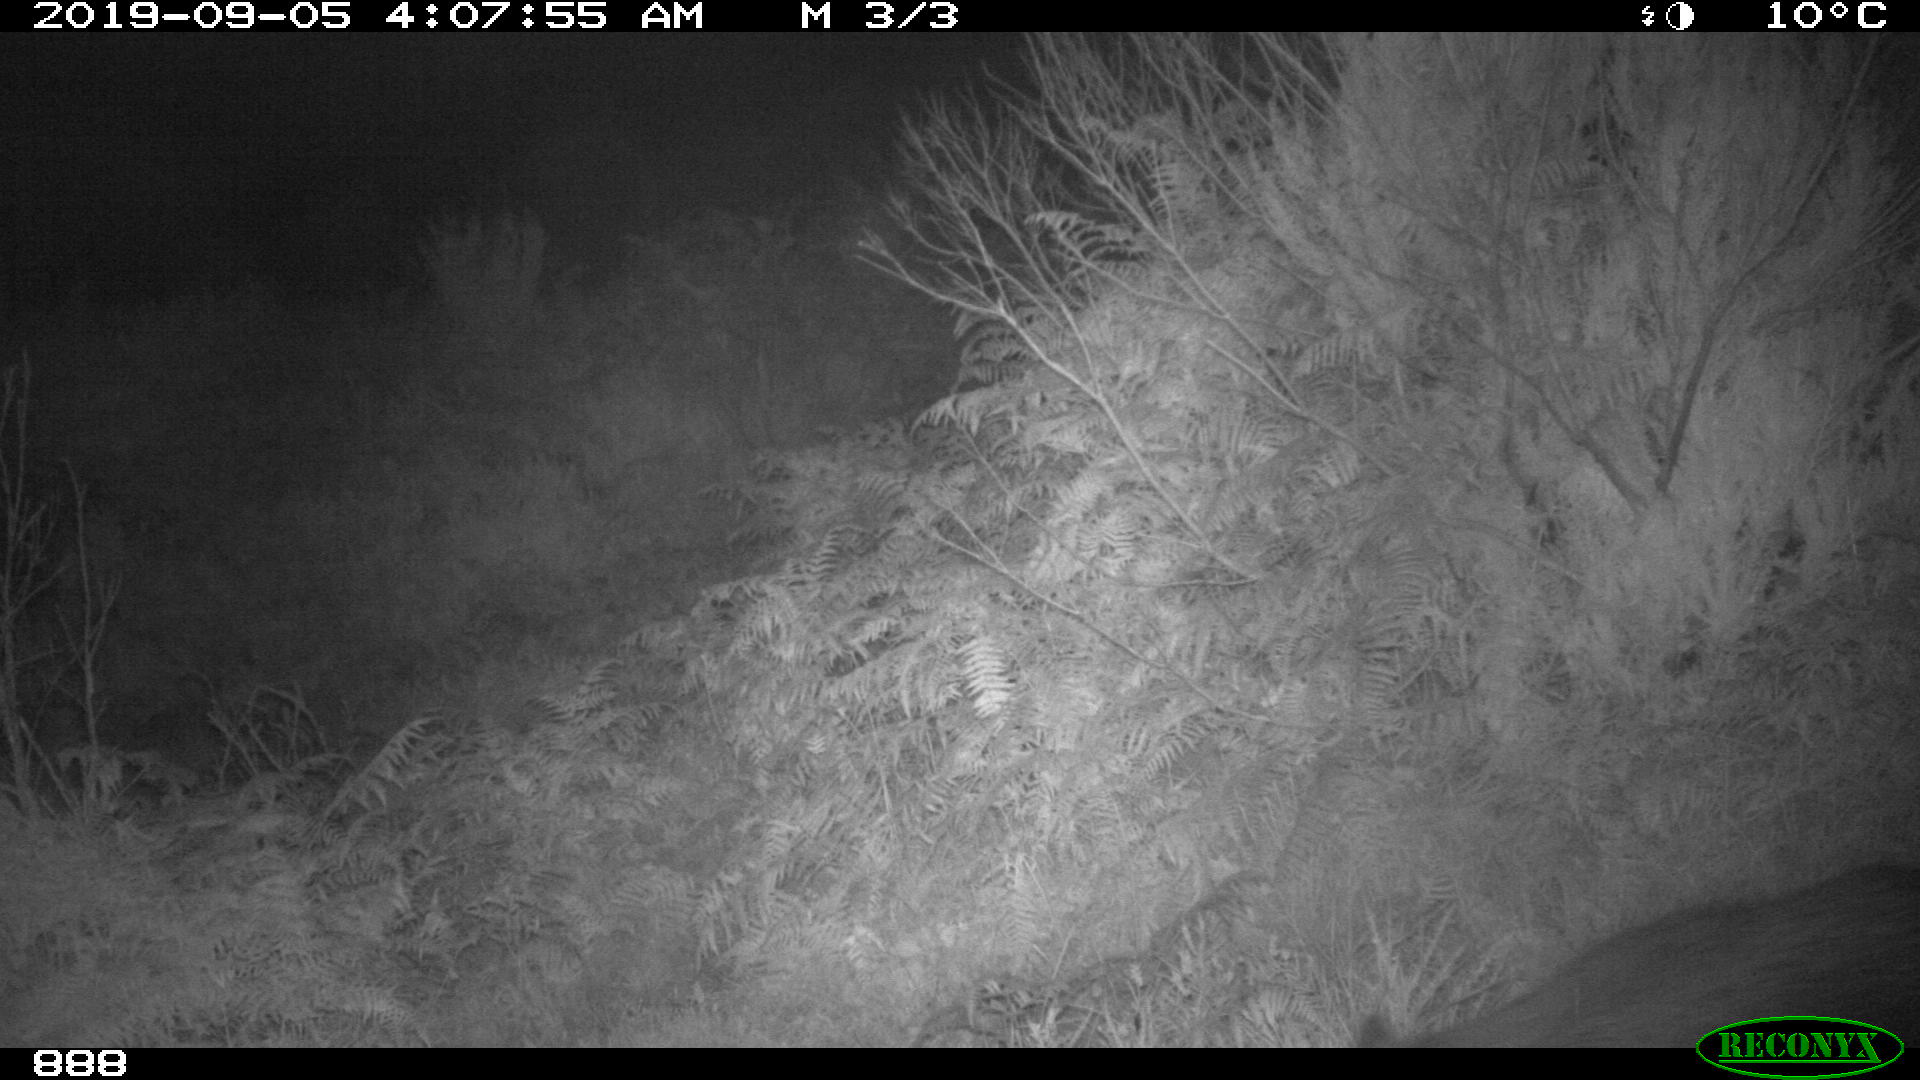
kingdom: Animalia
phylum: Chordata
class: Mammalia
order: Artiodactyla
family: Suidae
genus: Sus
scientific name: Sus scrofa
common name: Wild boar
